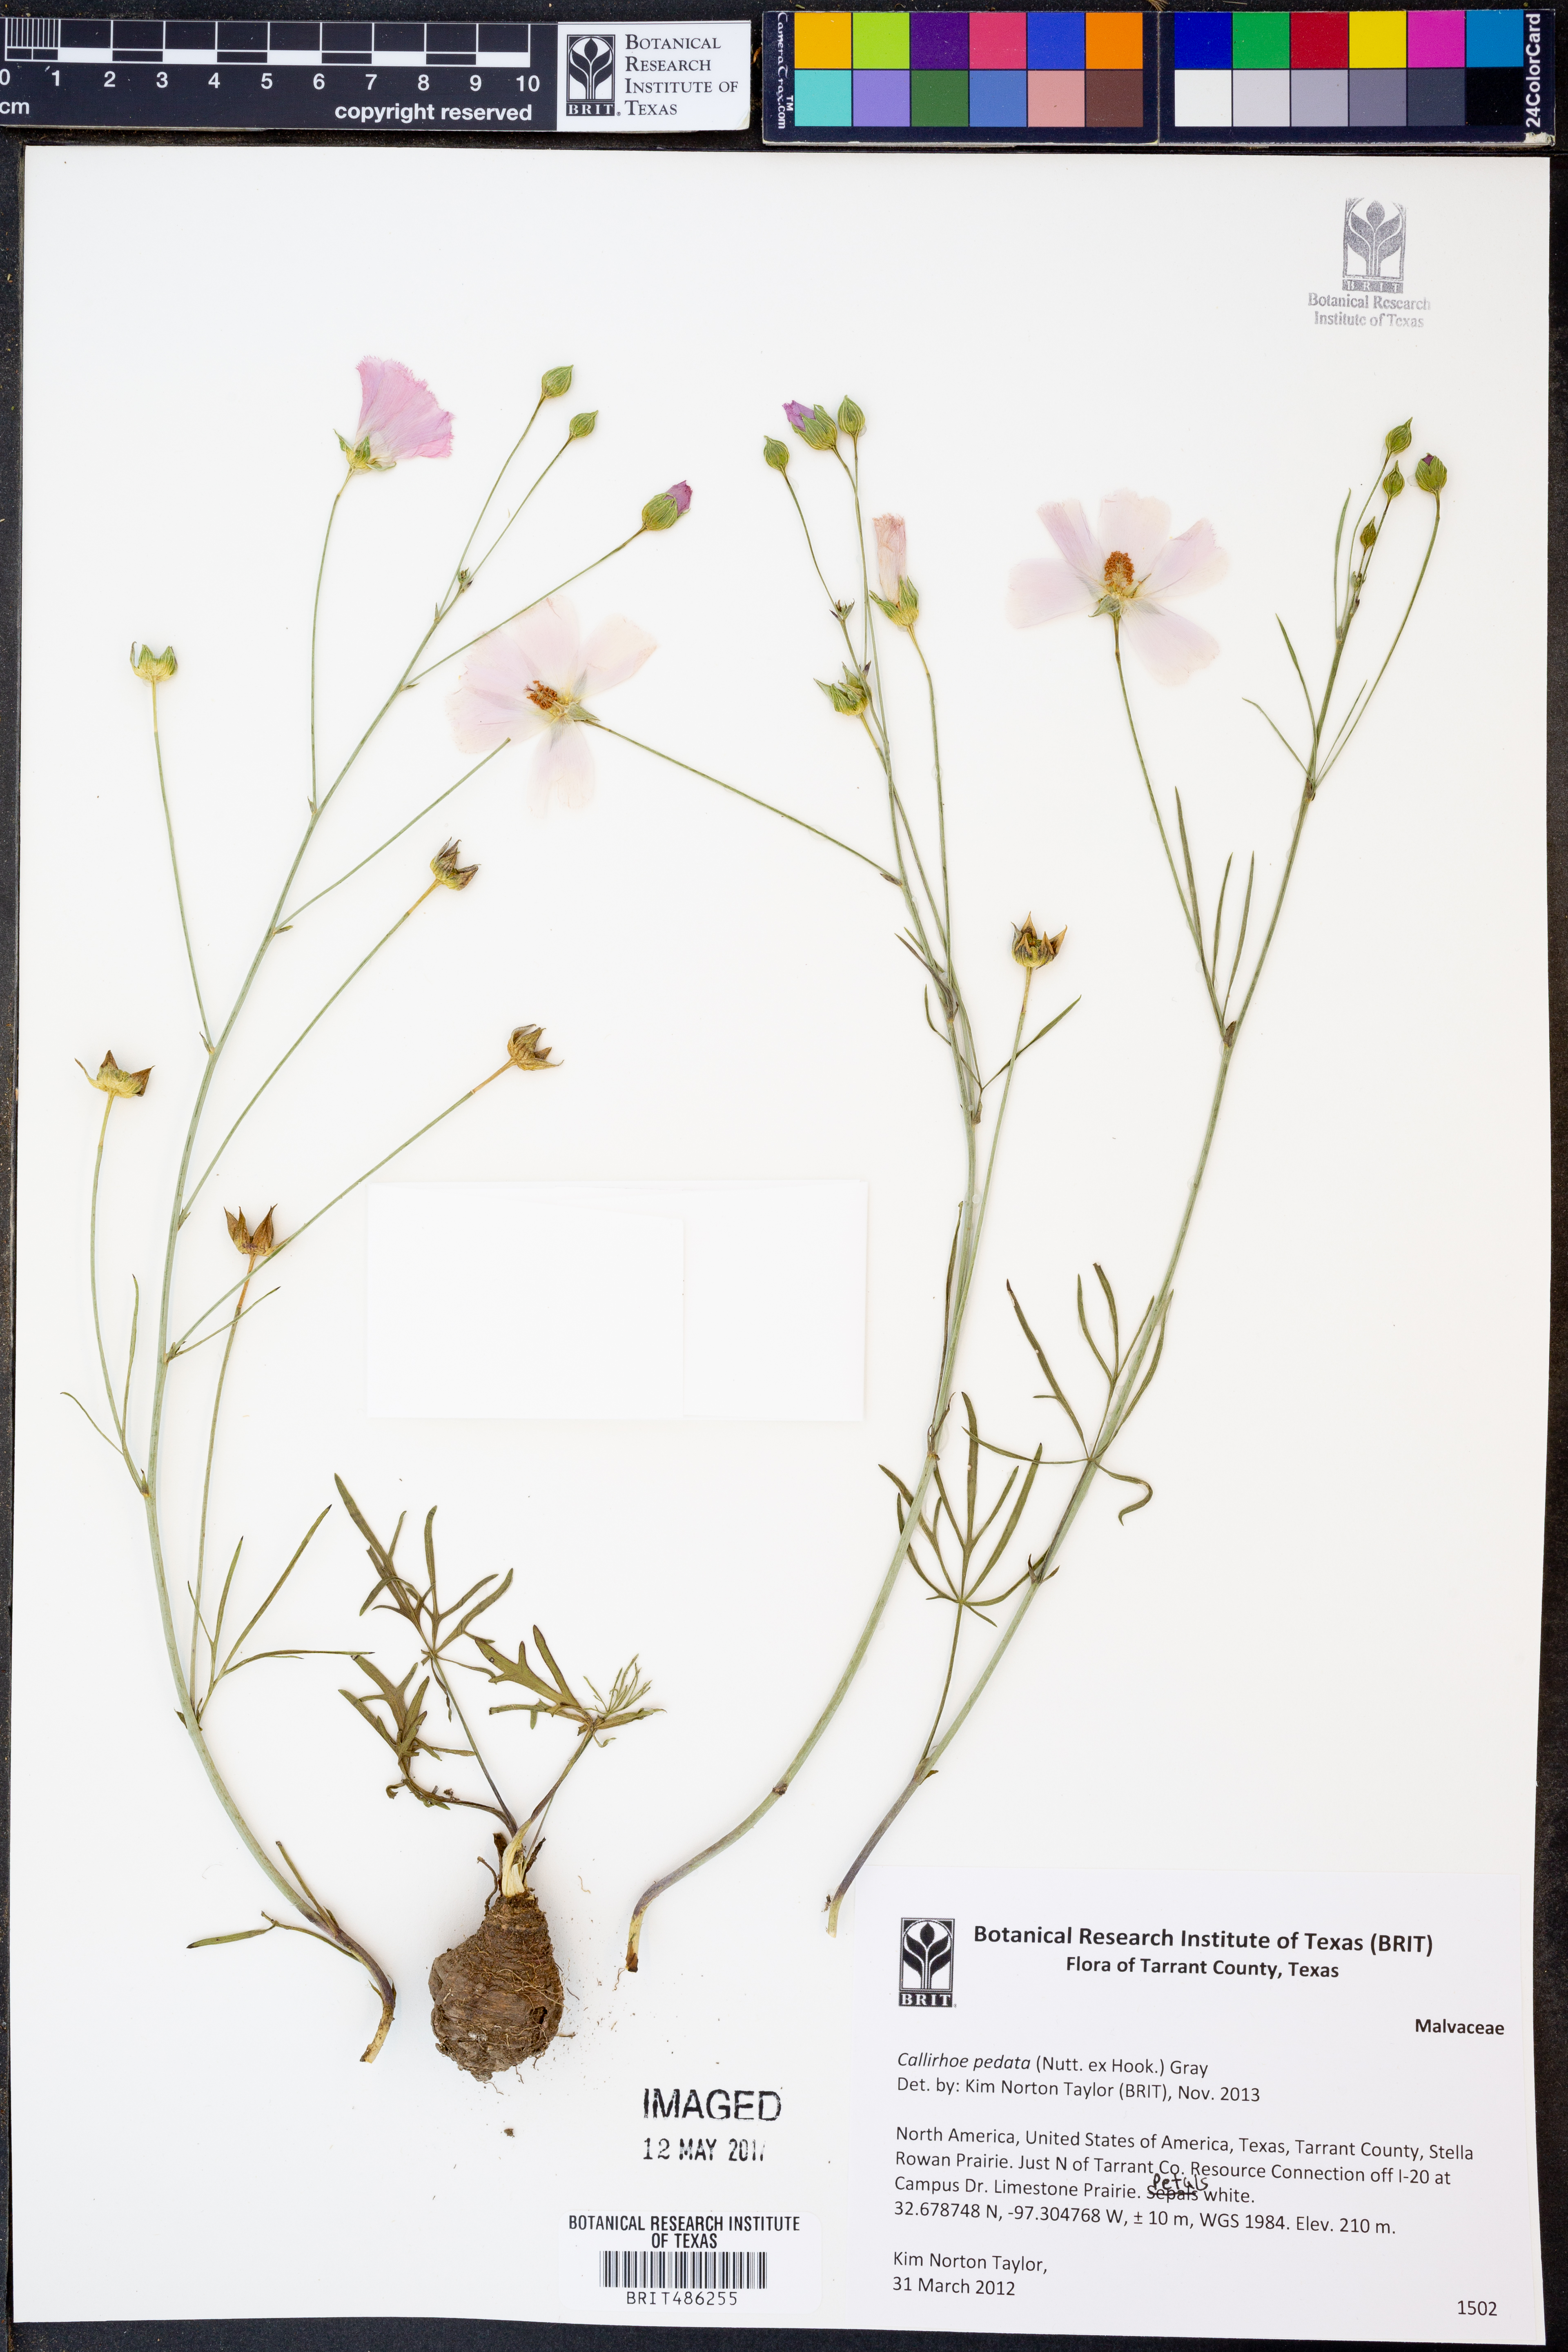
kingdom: Plantae
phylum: Tracheophyta
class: Magnoliopsida
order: Malvales
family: Malvaceae
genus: Callirhoe
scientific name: Callirhoe pedata
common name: Finger poppy-mallow
